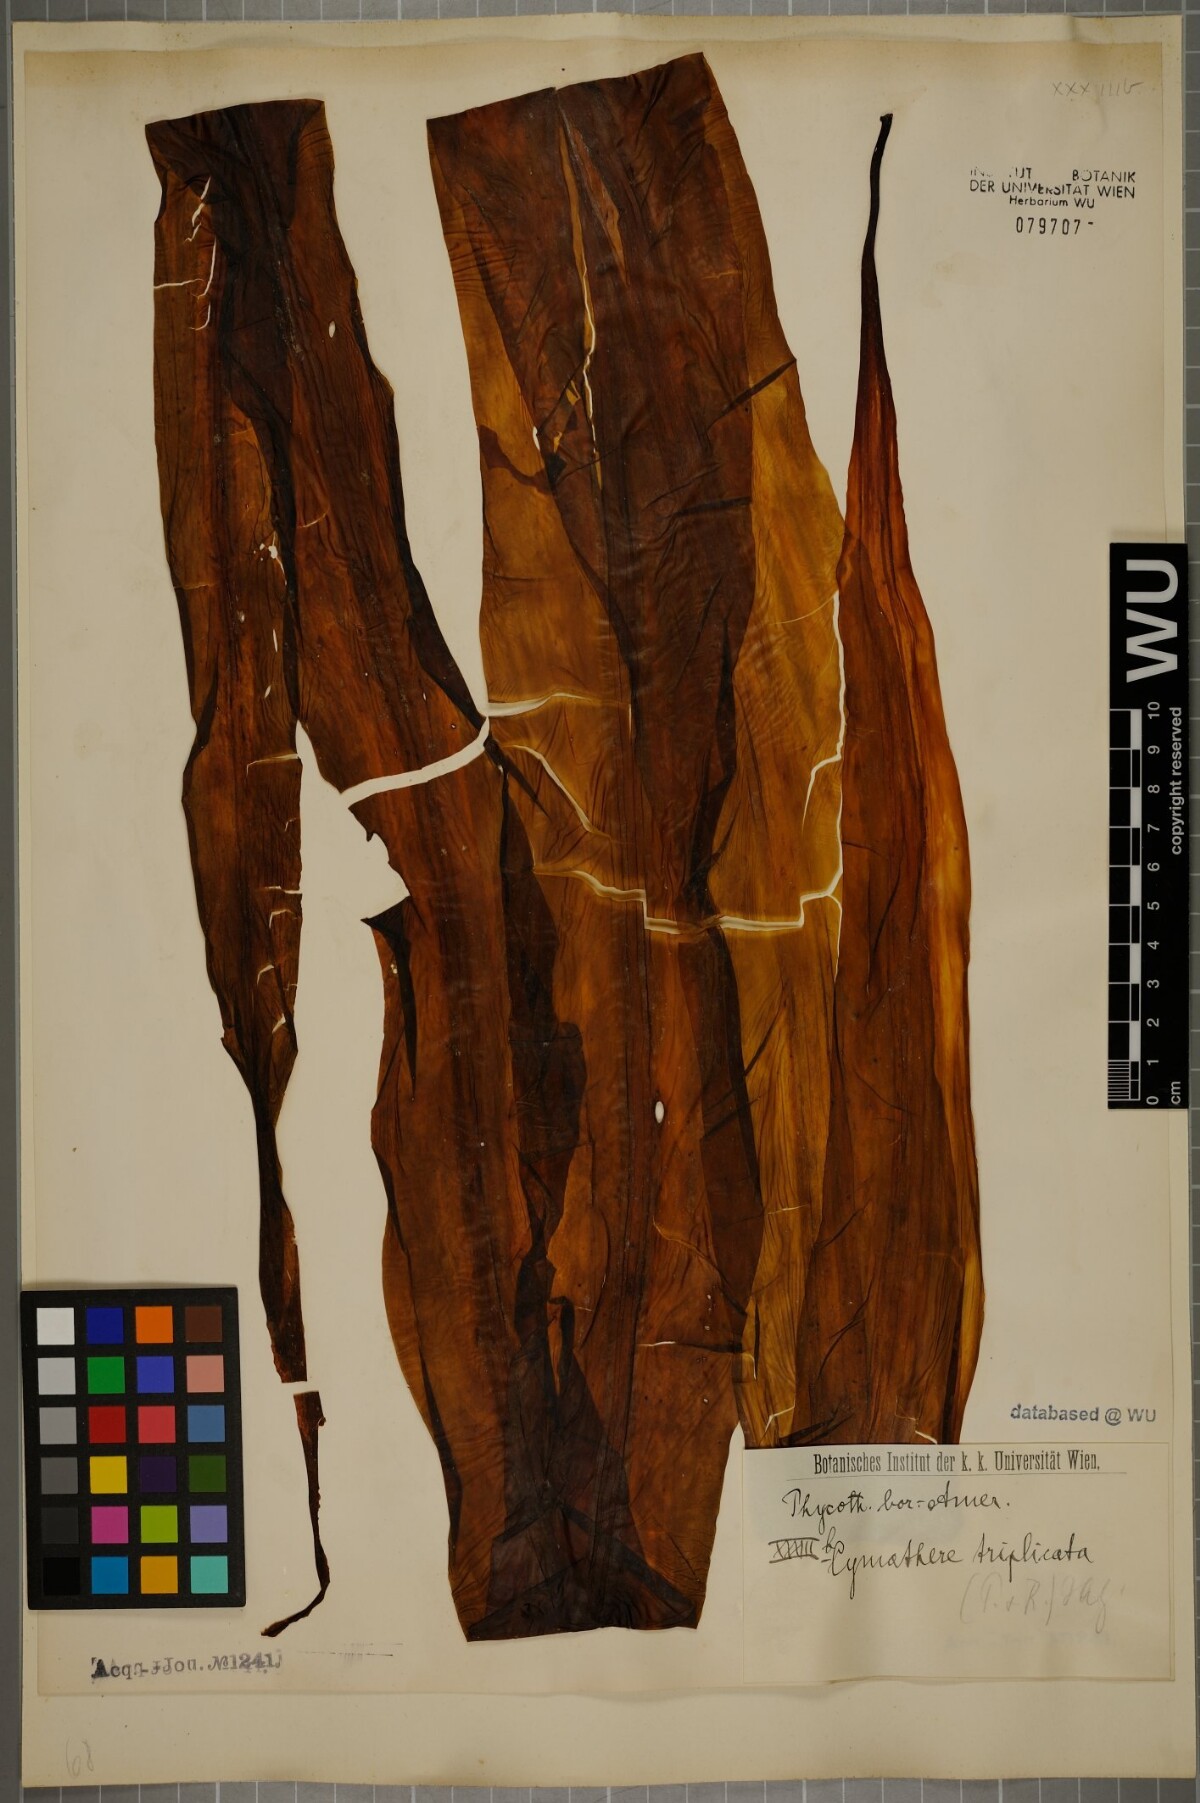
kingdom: Chromista
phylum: Ochrophyta
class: Phaeophyceae
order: Laminariales
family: Laminariaceae
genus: Cymathaere
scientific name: Cymathaere triplicata
